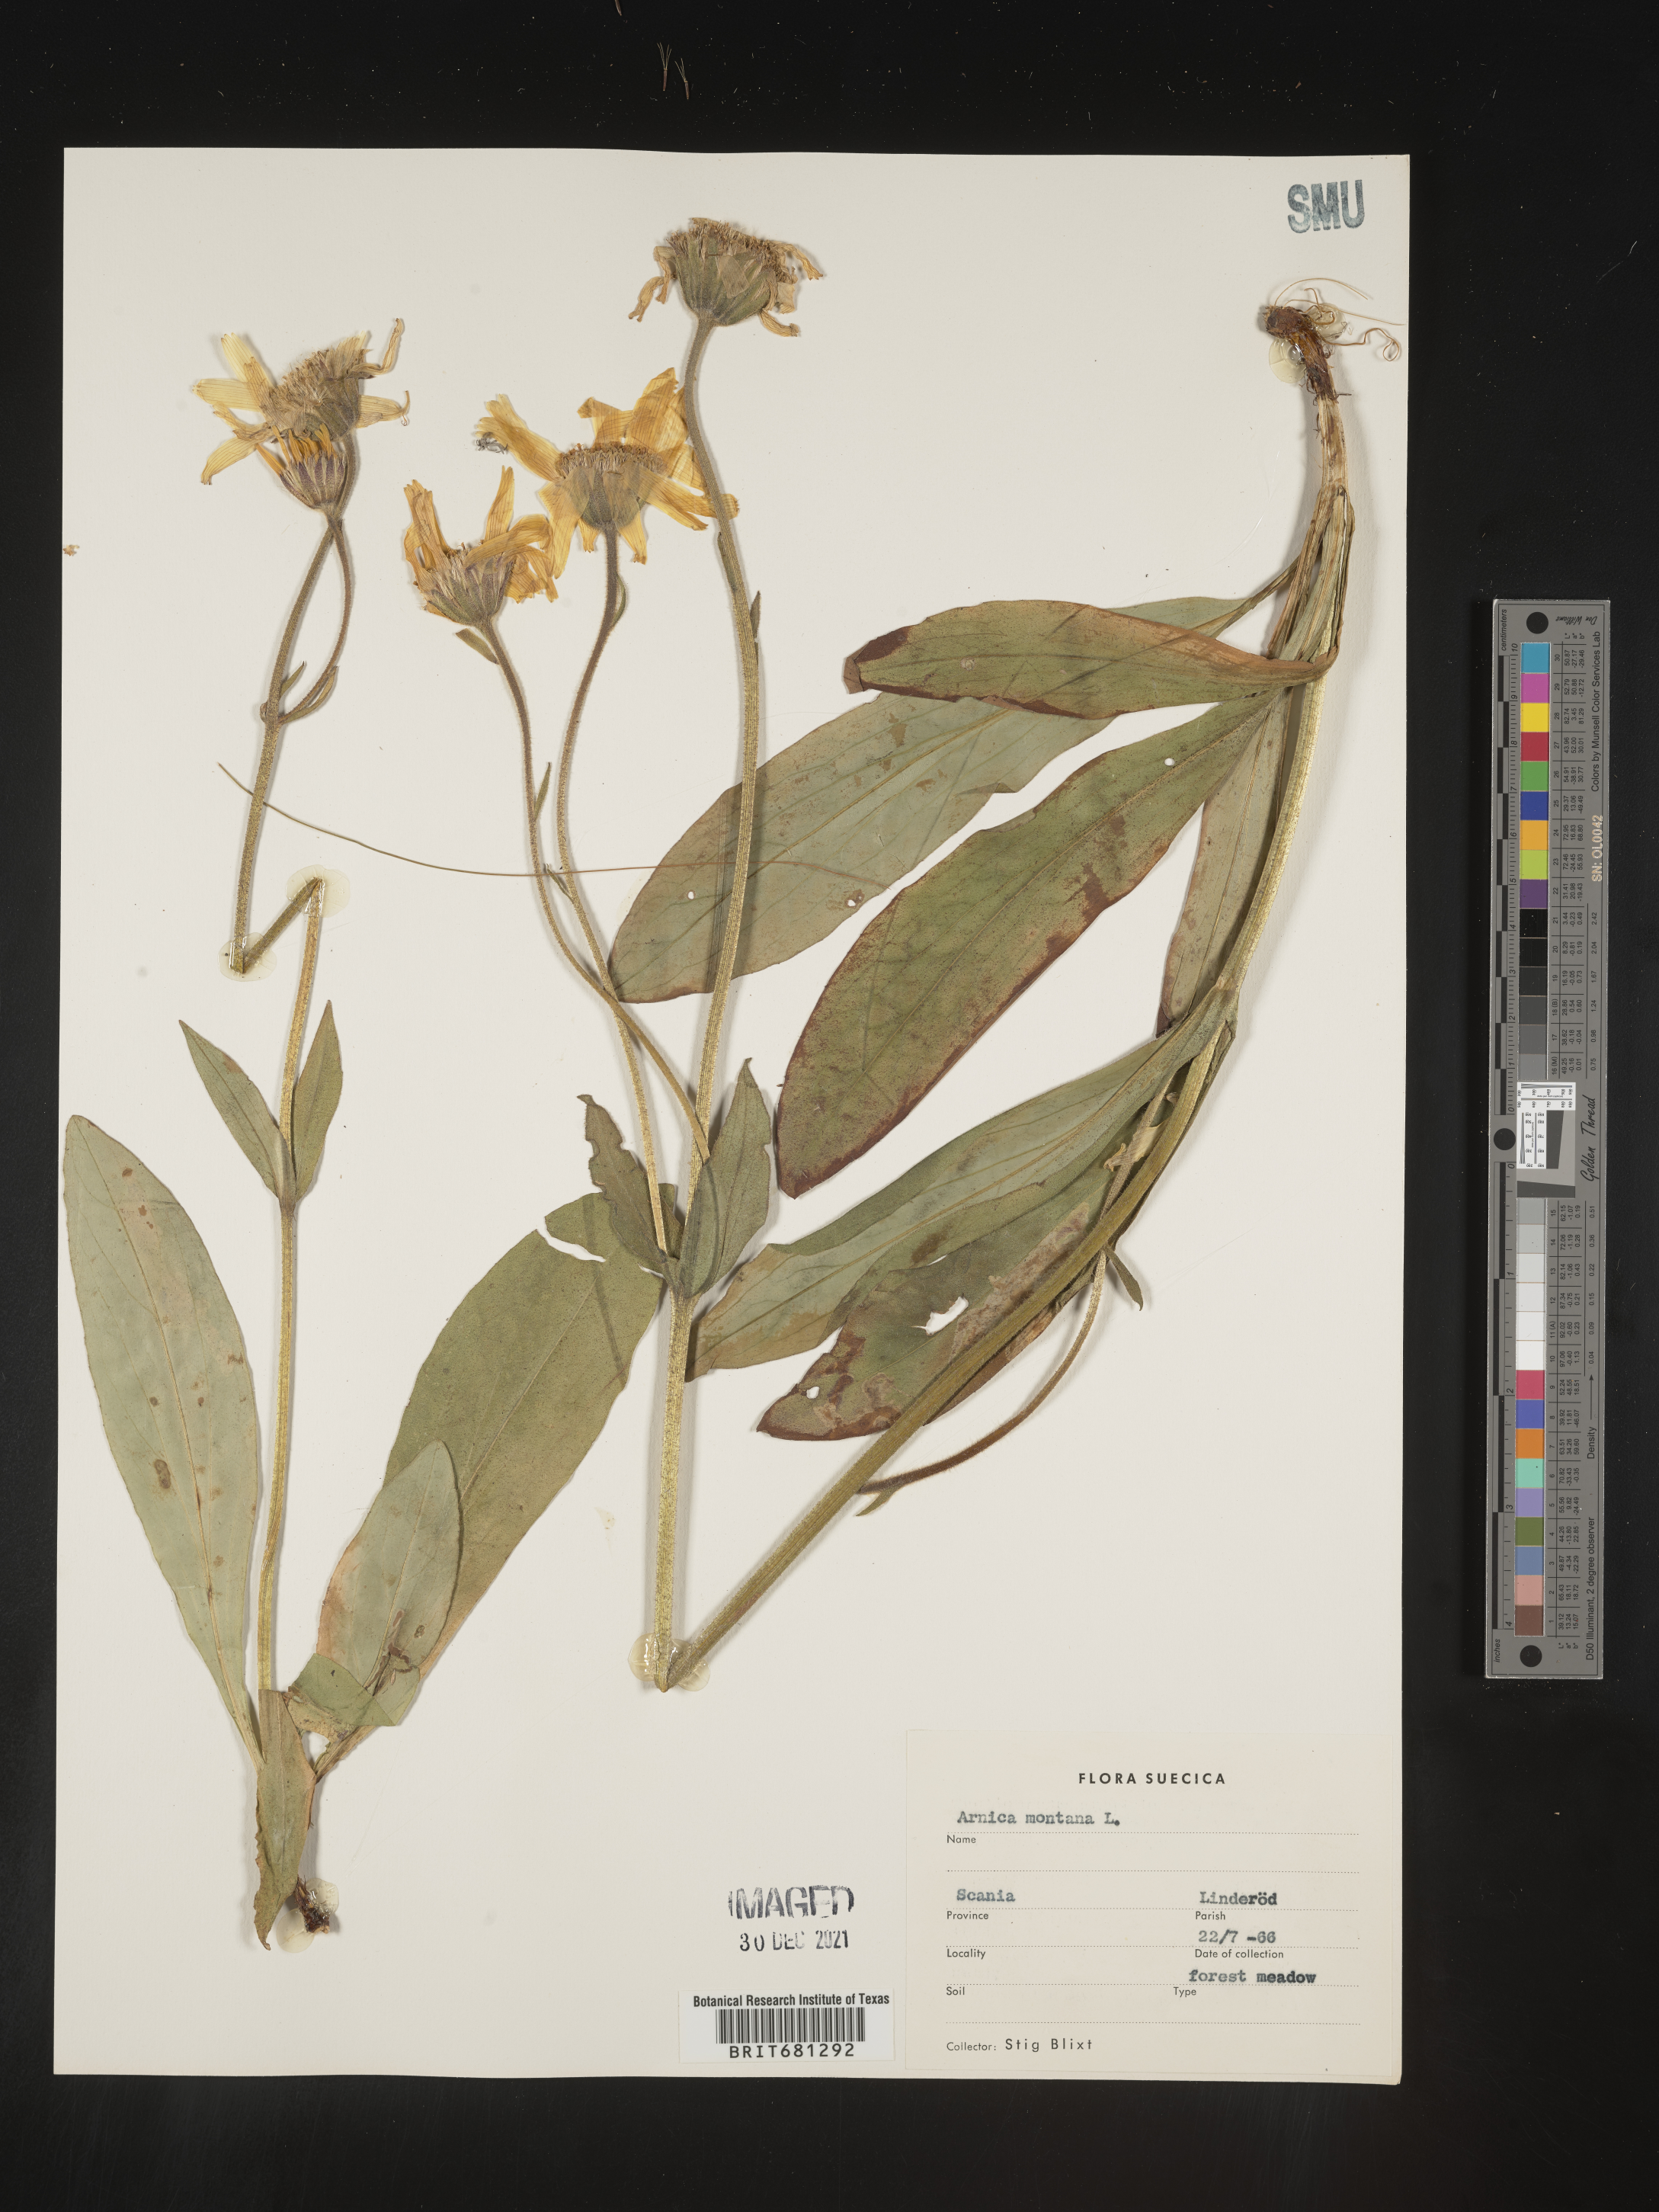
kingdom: Plantae
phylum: Tracheophyta
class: Magnoliopsida
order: Asterales
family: Asteraceae
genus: Arnica
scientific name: Arnica
